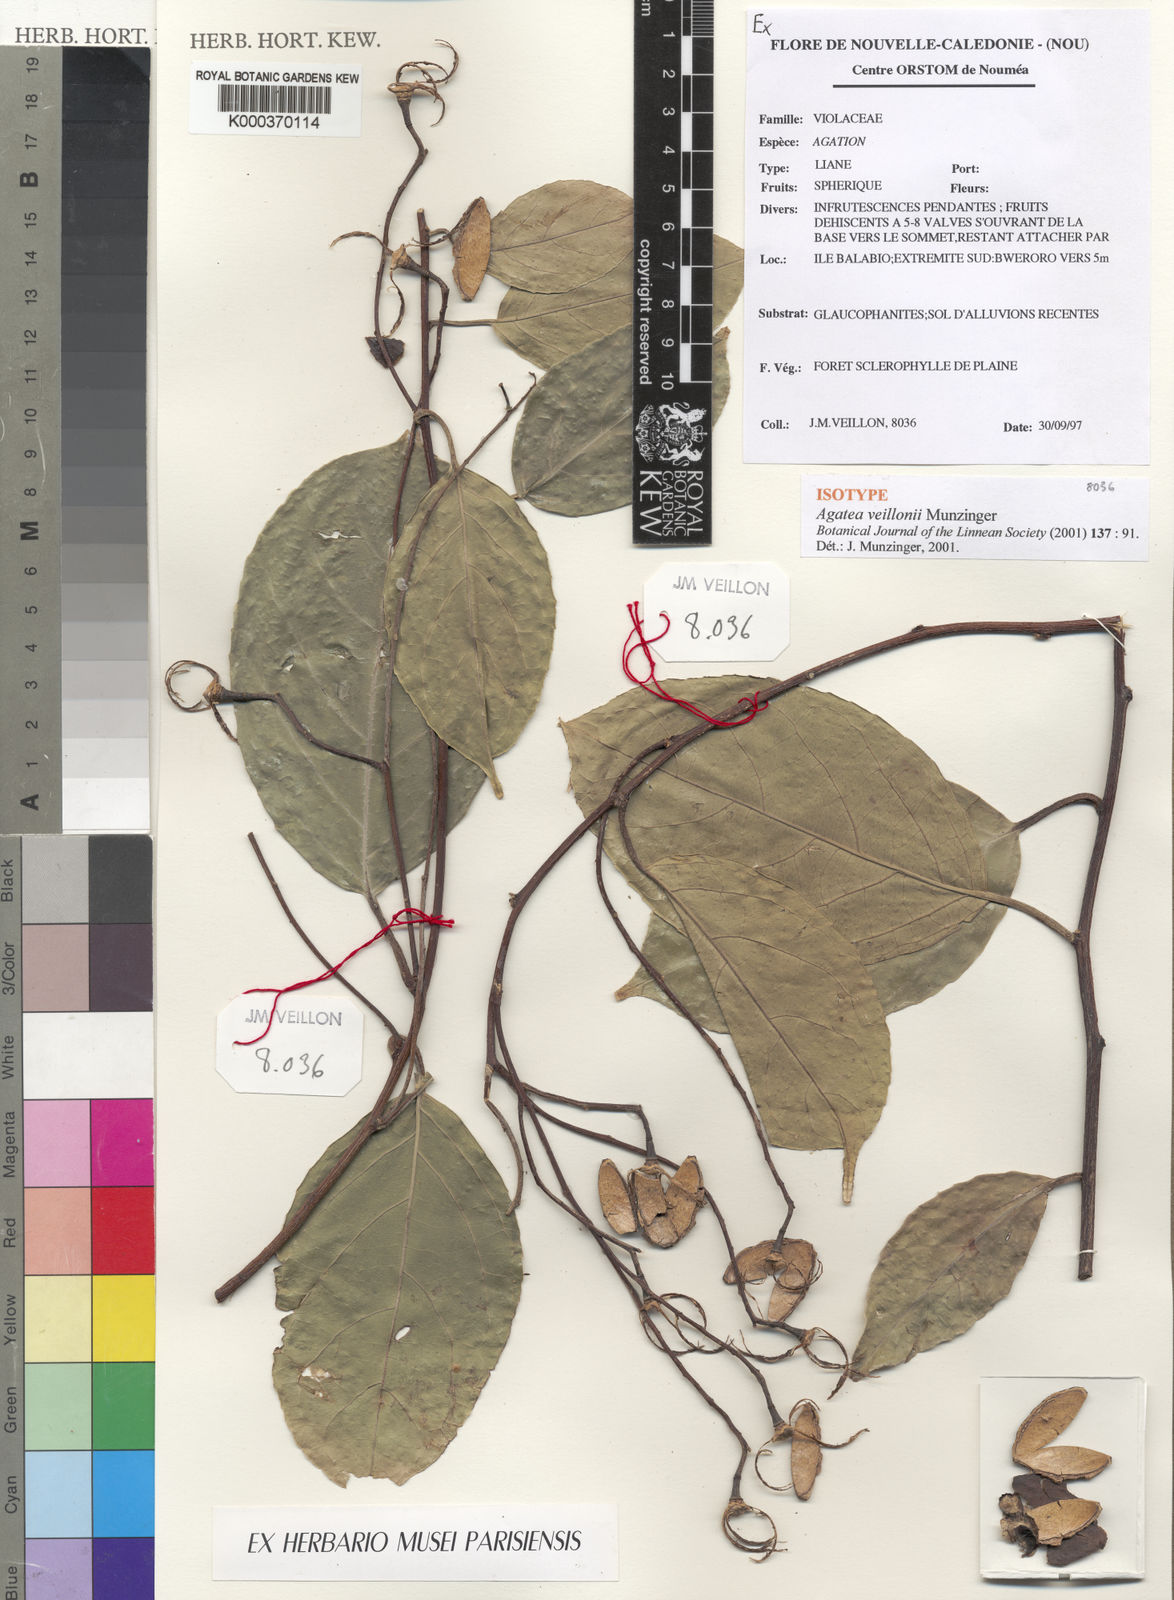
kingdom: Plantae
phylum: Tracheophyta
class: Magnoliopsida
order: Malpighiales
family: Violaceae
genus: Agatea
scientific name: Agatea veillonii
